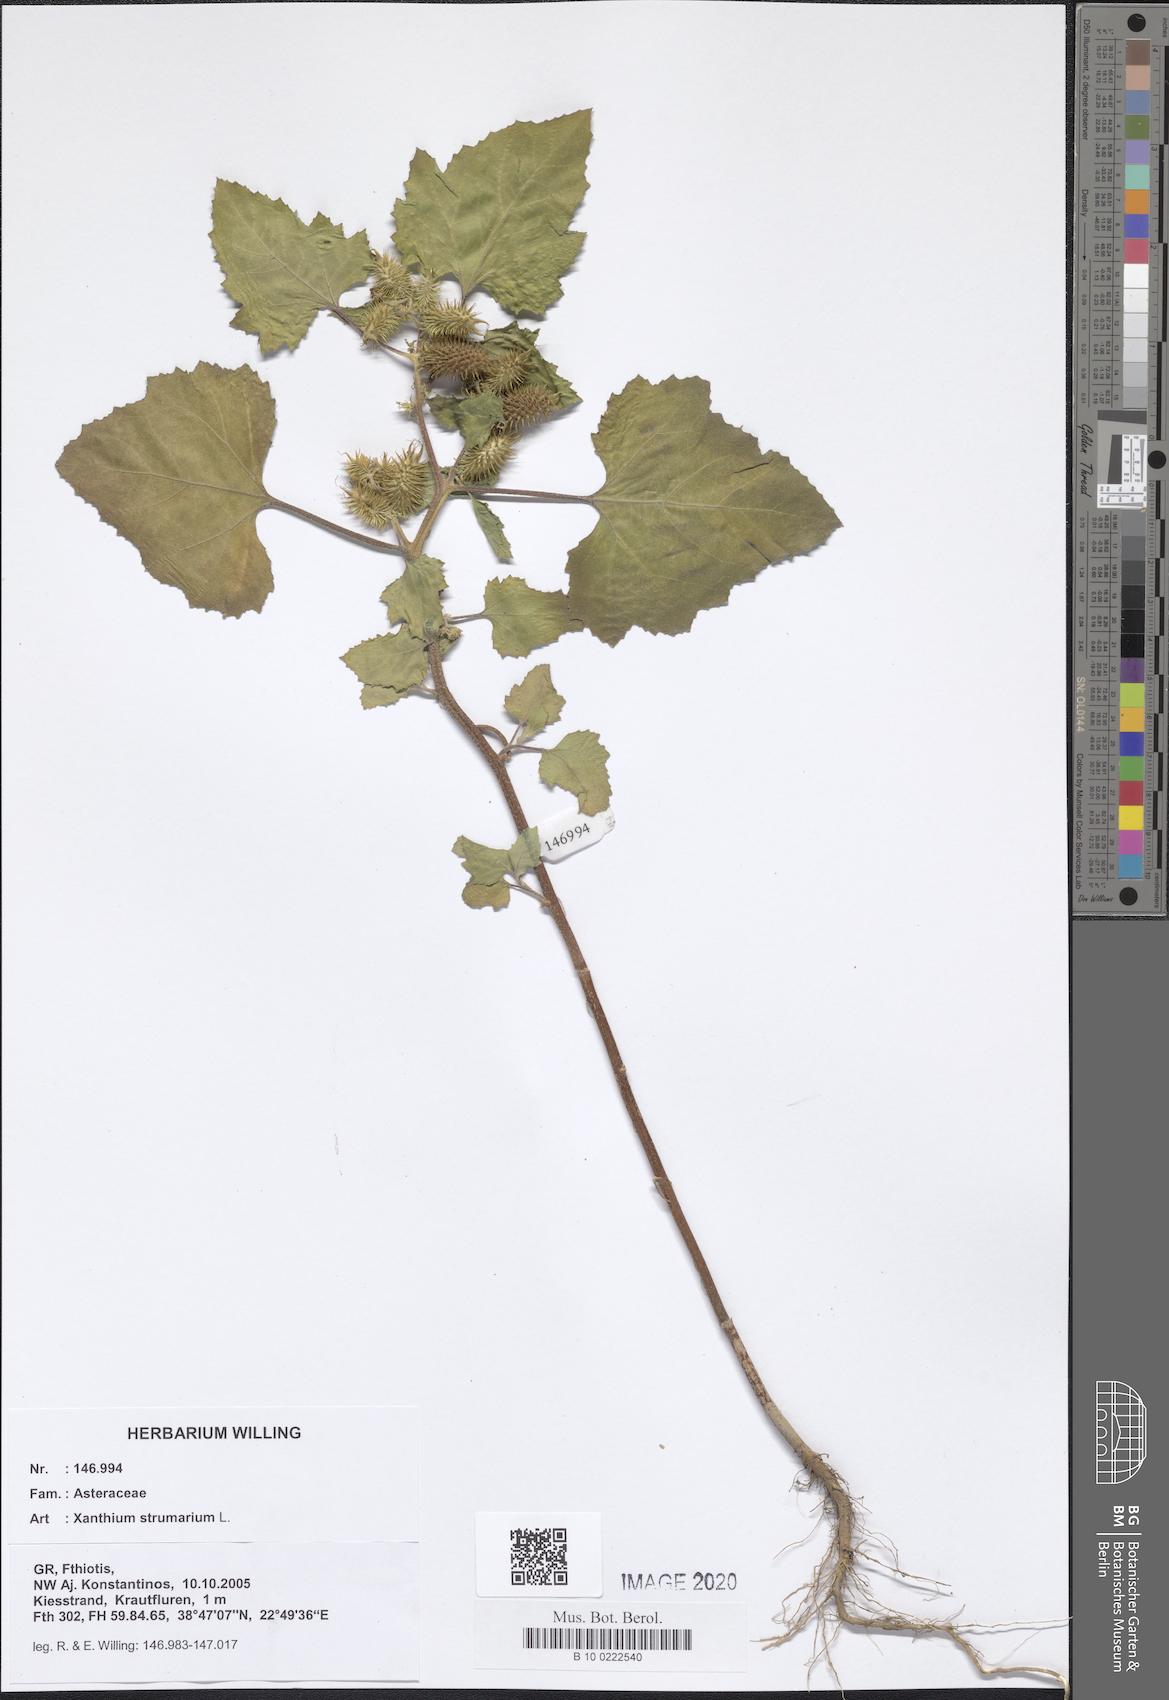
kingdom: Plantae
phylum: Tracheophyta
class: Magnoliopsida
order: Asterales
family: Asteraceae
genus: Xanthium
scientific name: Xanthium strumarium
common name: Rough cocklebur
